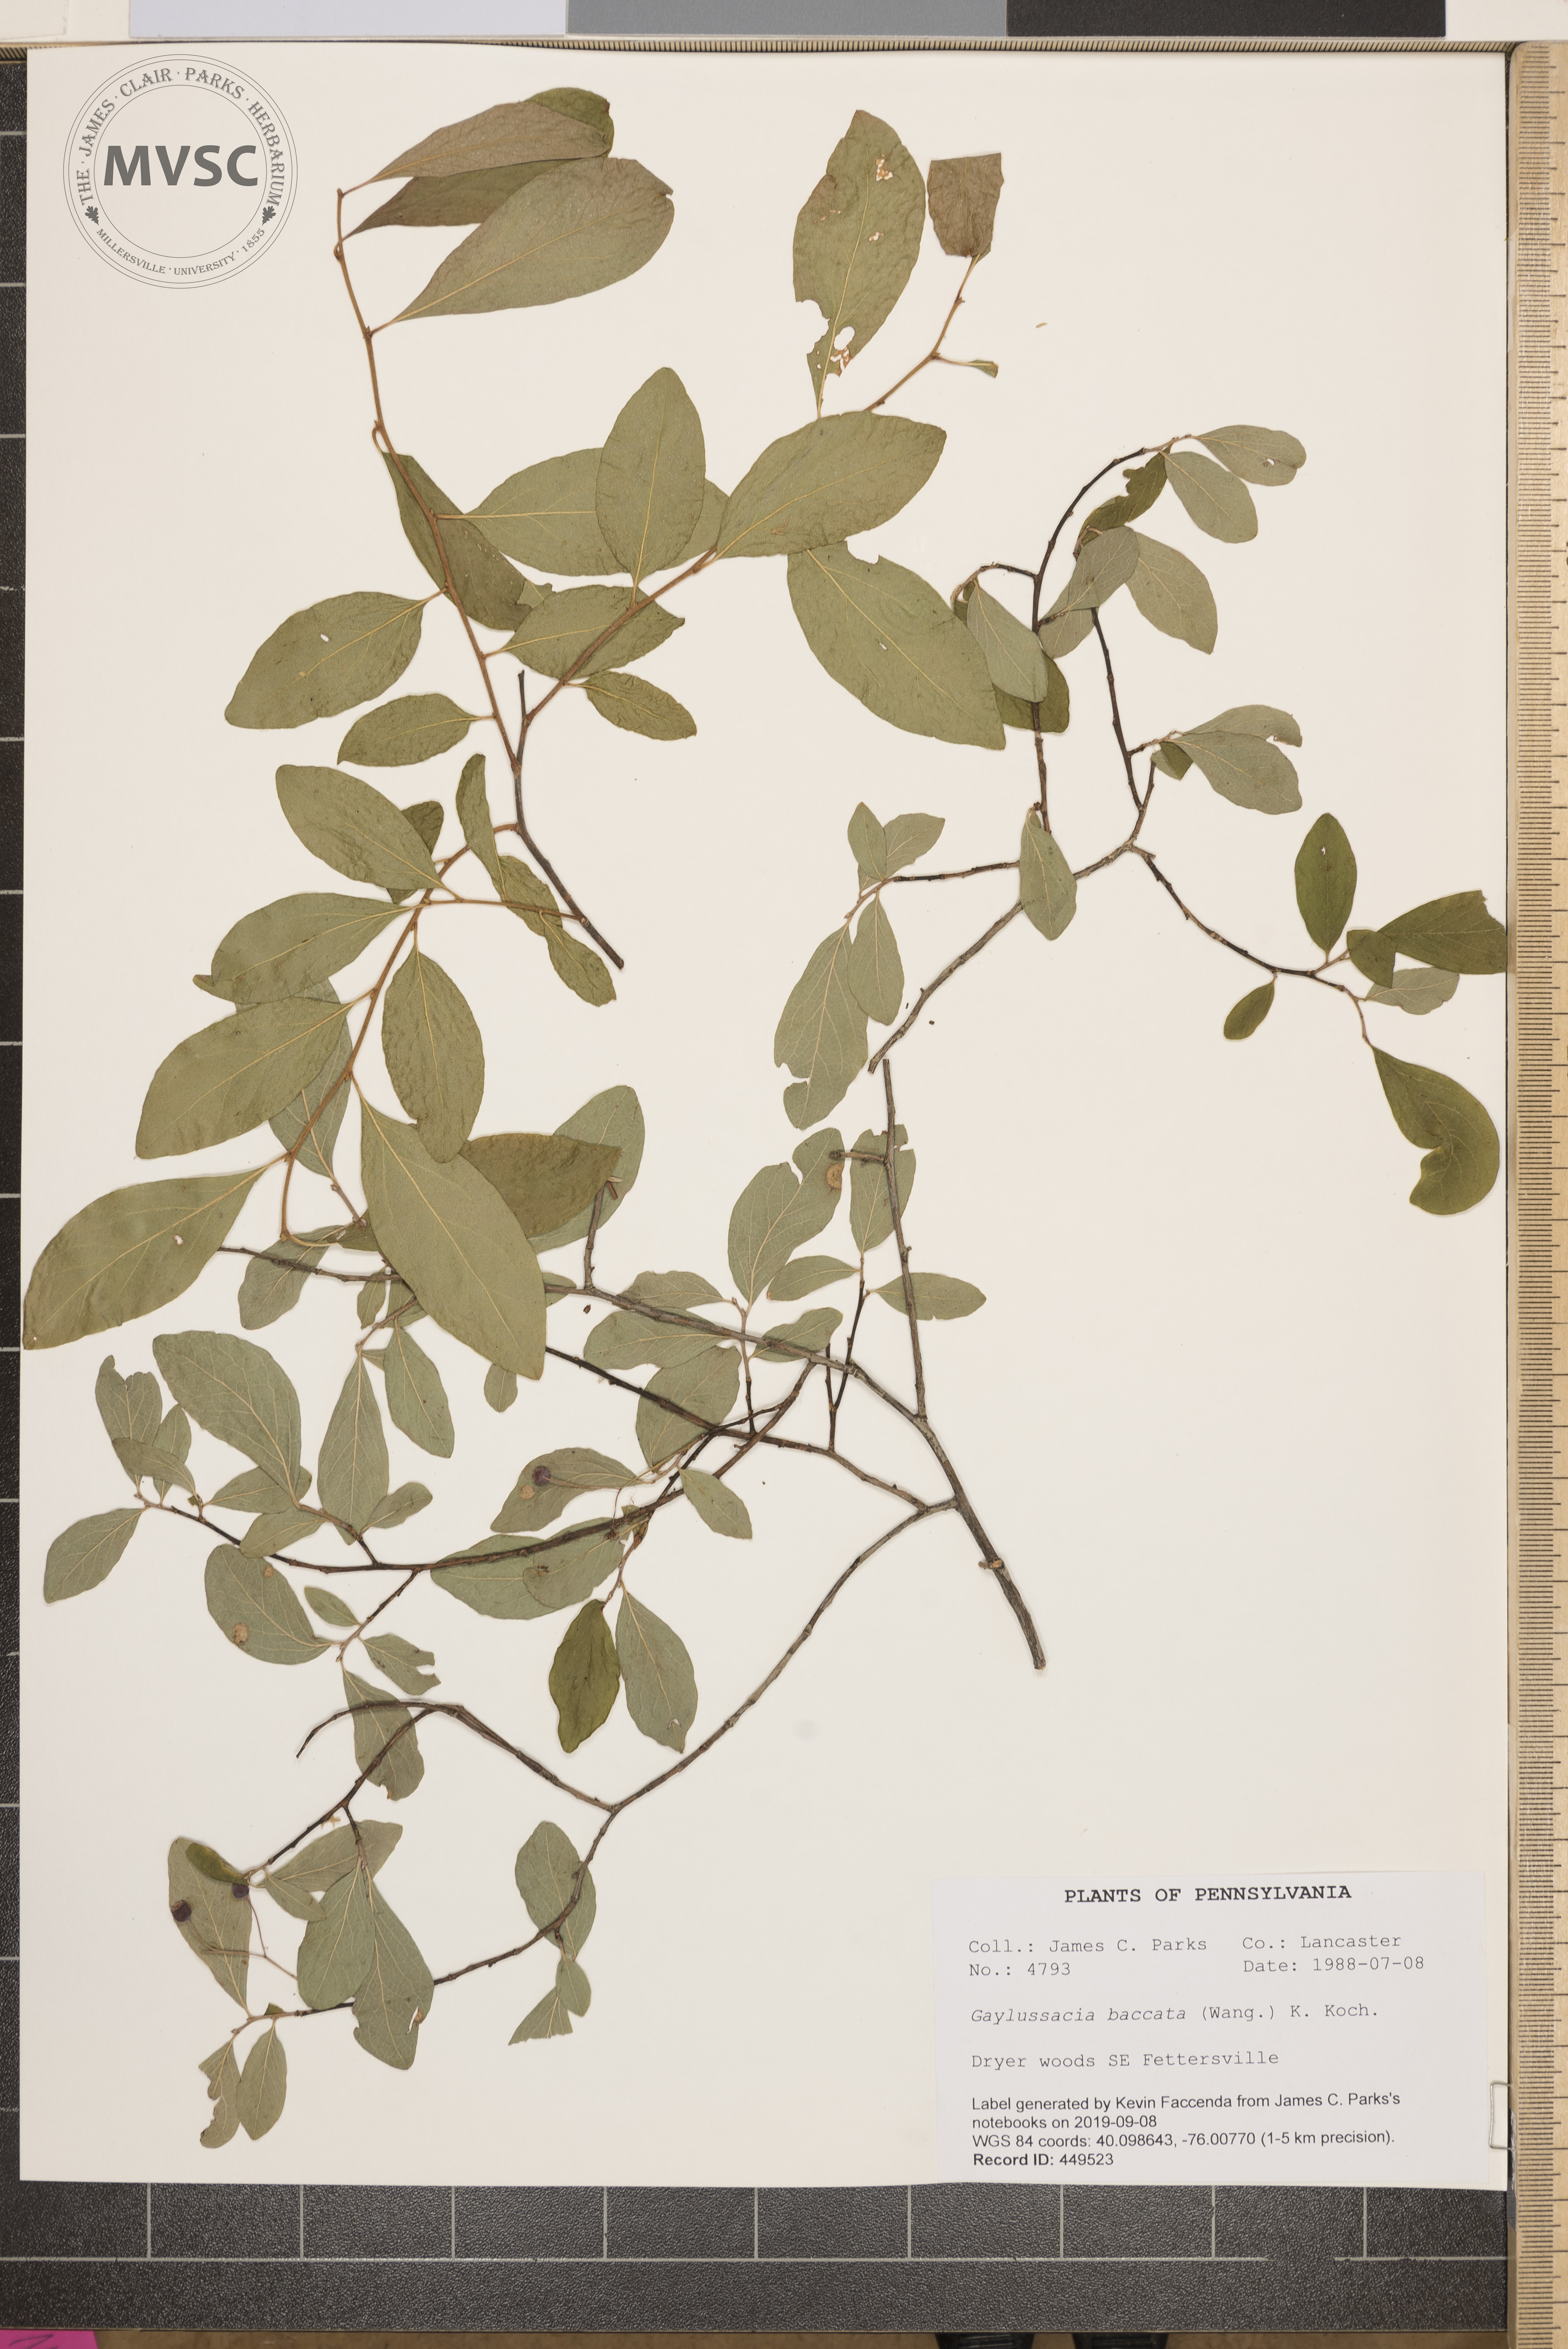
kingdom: Plantae
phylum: Tracheophyta
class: Magnoliopsida
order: Ericales
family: Ericaceae
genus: Gaylussacia
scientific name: Gaylussacia baccata
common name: Black huckleberry
